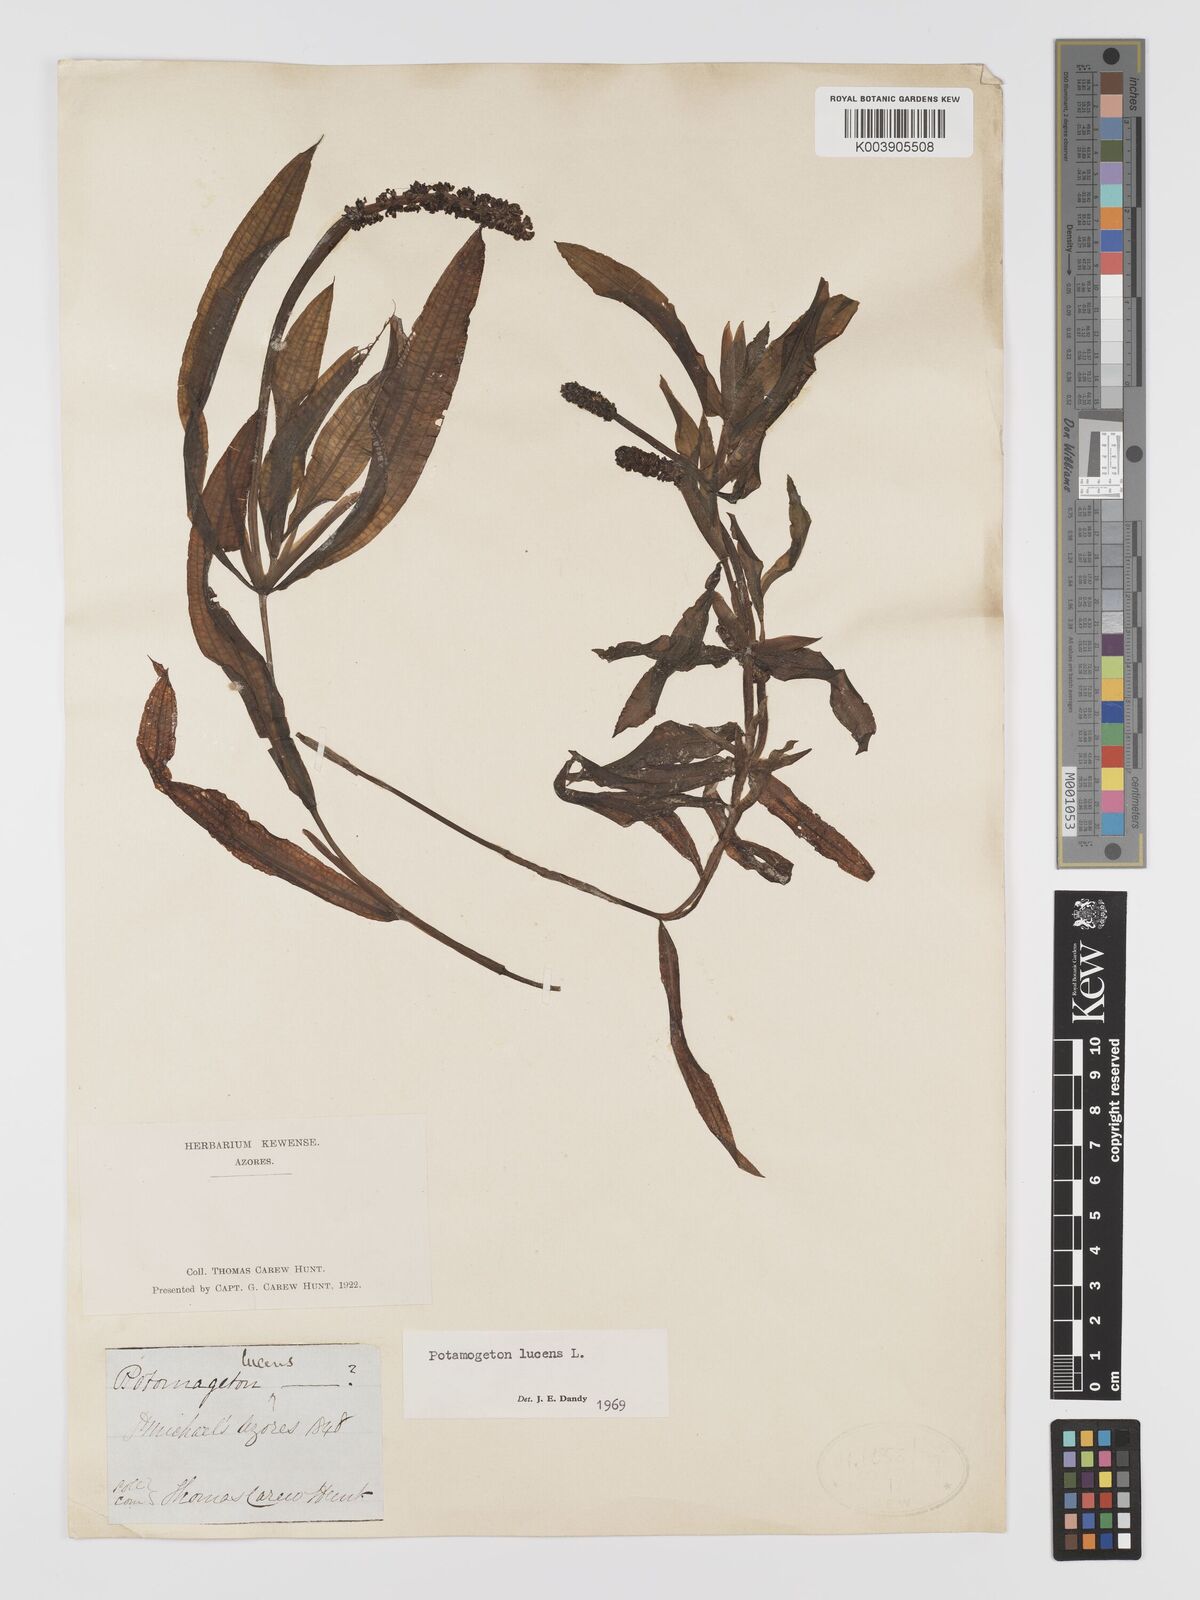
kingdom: Plantae
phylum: Tracheophyta
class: Liliopsida
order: Alismatales
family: Potamogetonaceae
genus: Potamogeton
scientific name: Potamogeton lucens
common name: Shining pondweed
